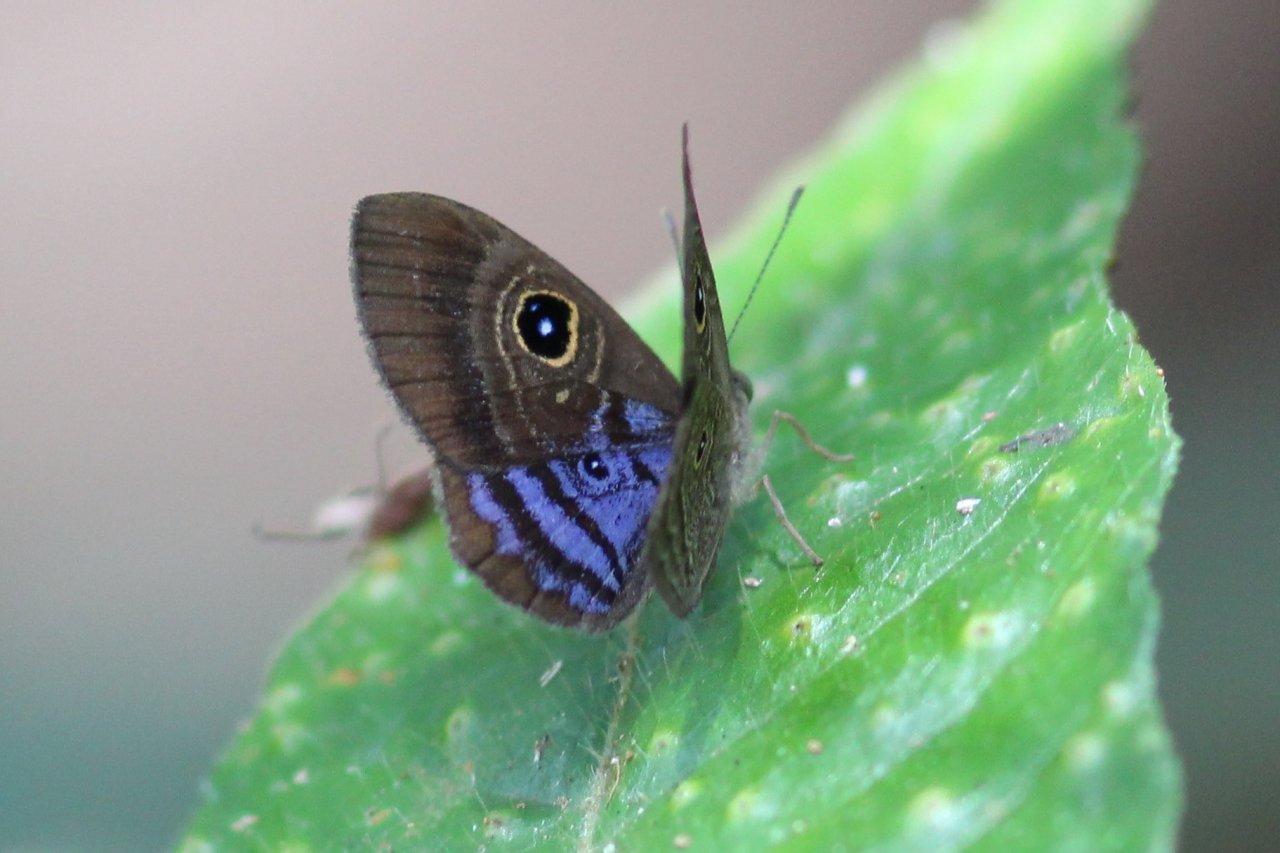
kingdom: Animalia
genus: Mesosemia
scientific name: Mesosemia lamachus
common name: Purple-washed Eyed-Metalmark
